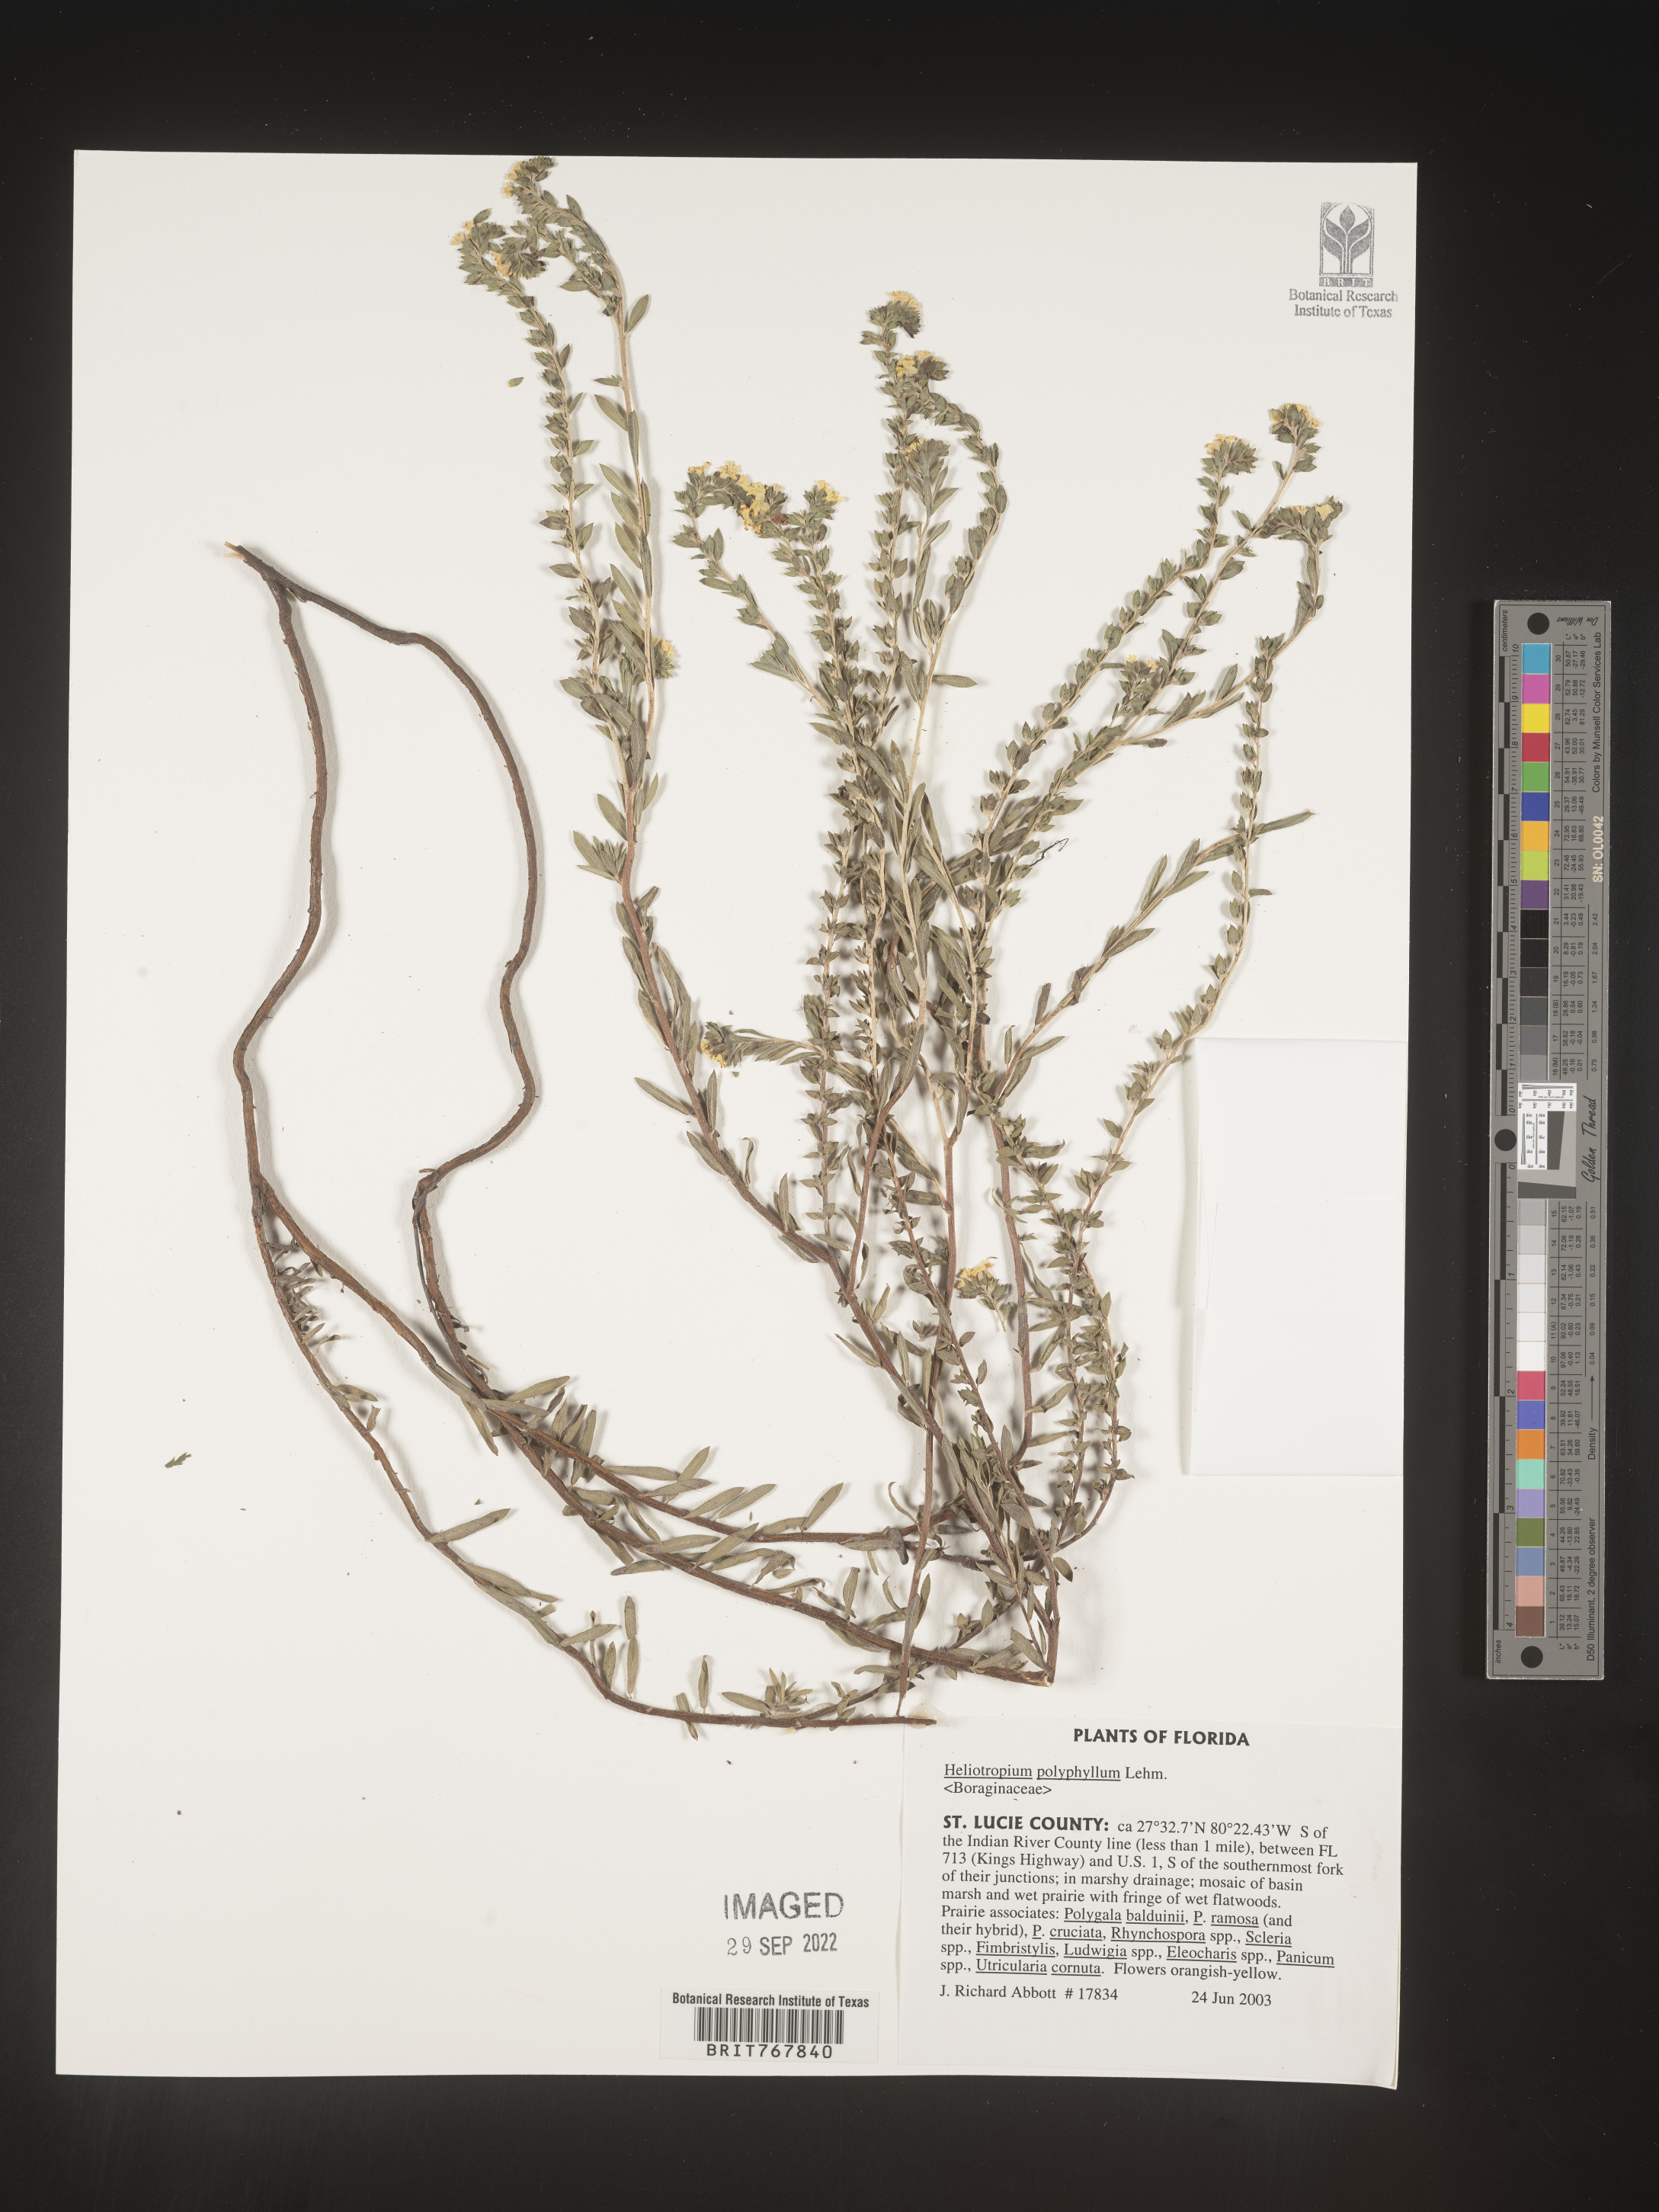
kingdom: Plantae
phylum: Tracheophyta
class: Magnoliopsida
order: Boraginales
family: Heliotropiaceae
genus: Heliotropium
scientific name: Heliotropium
